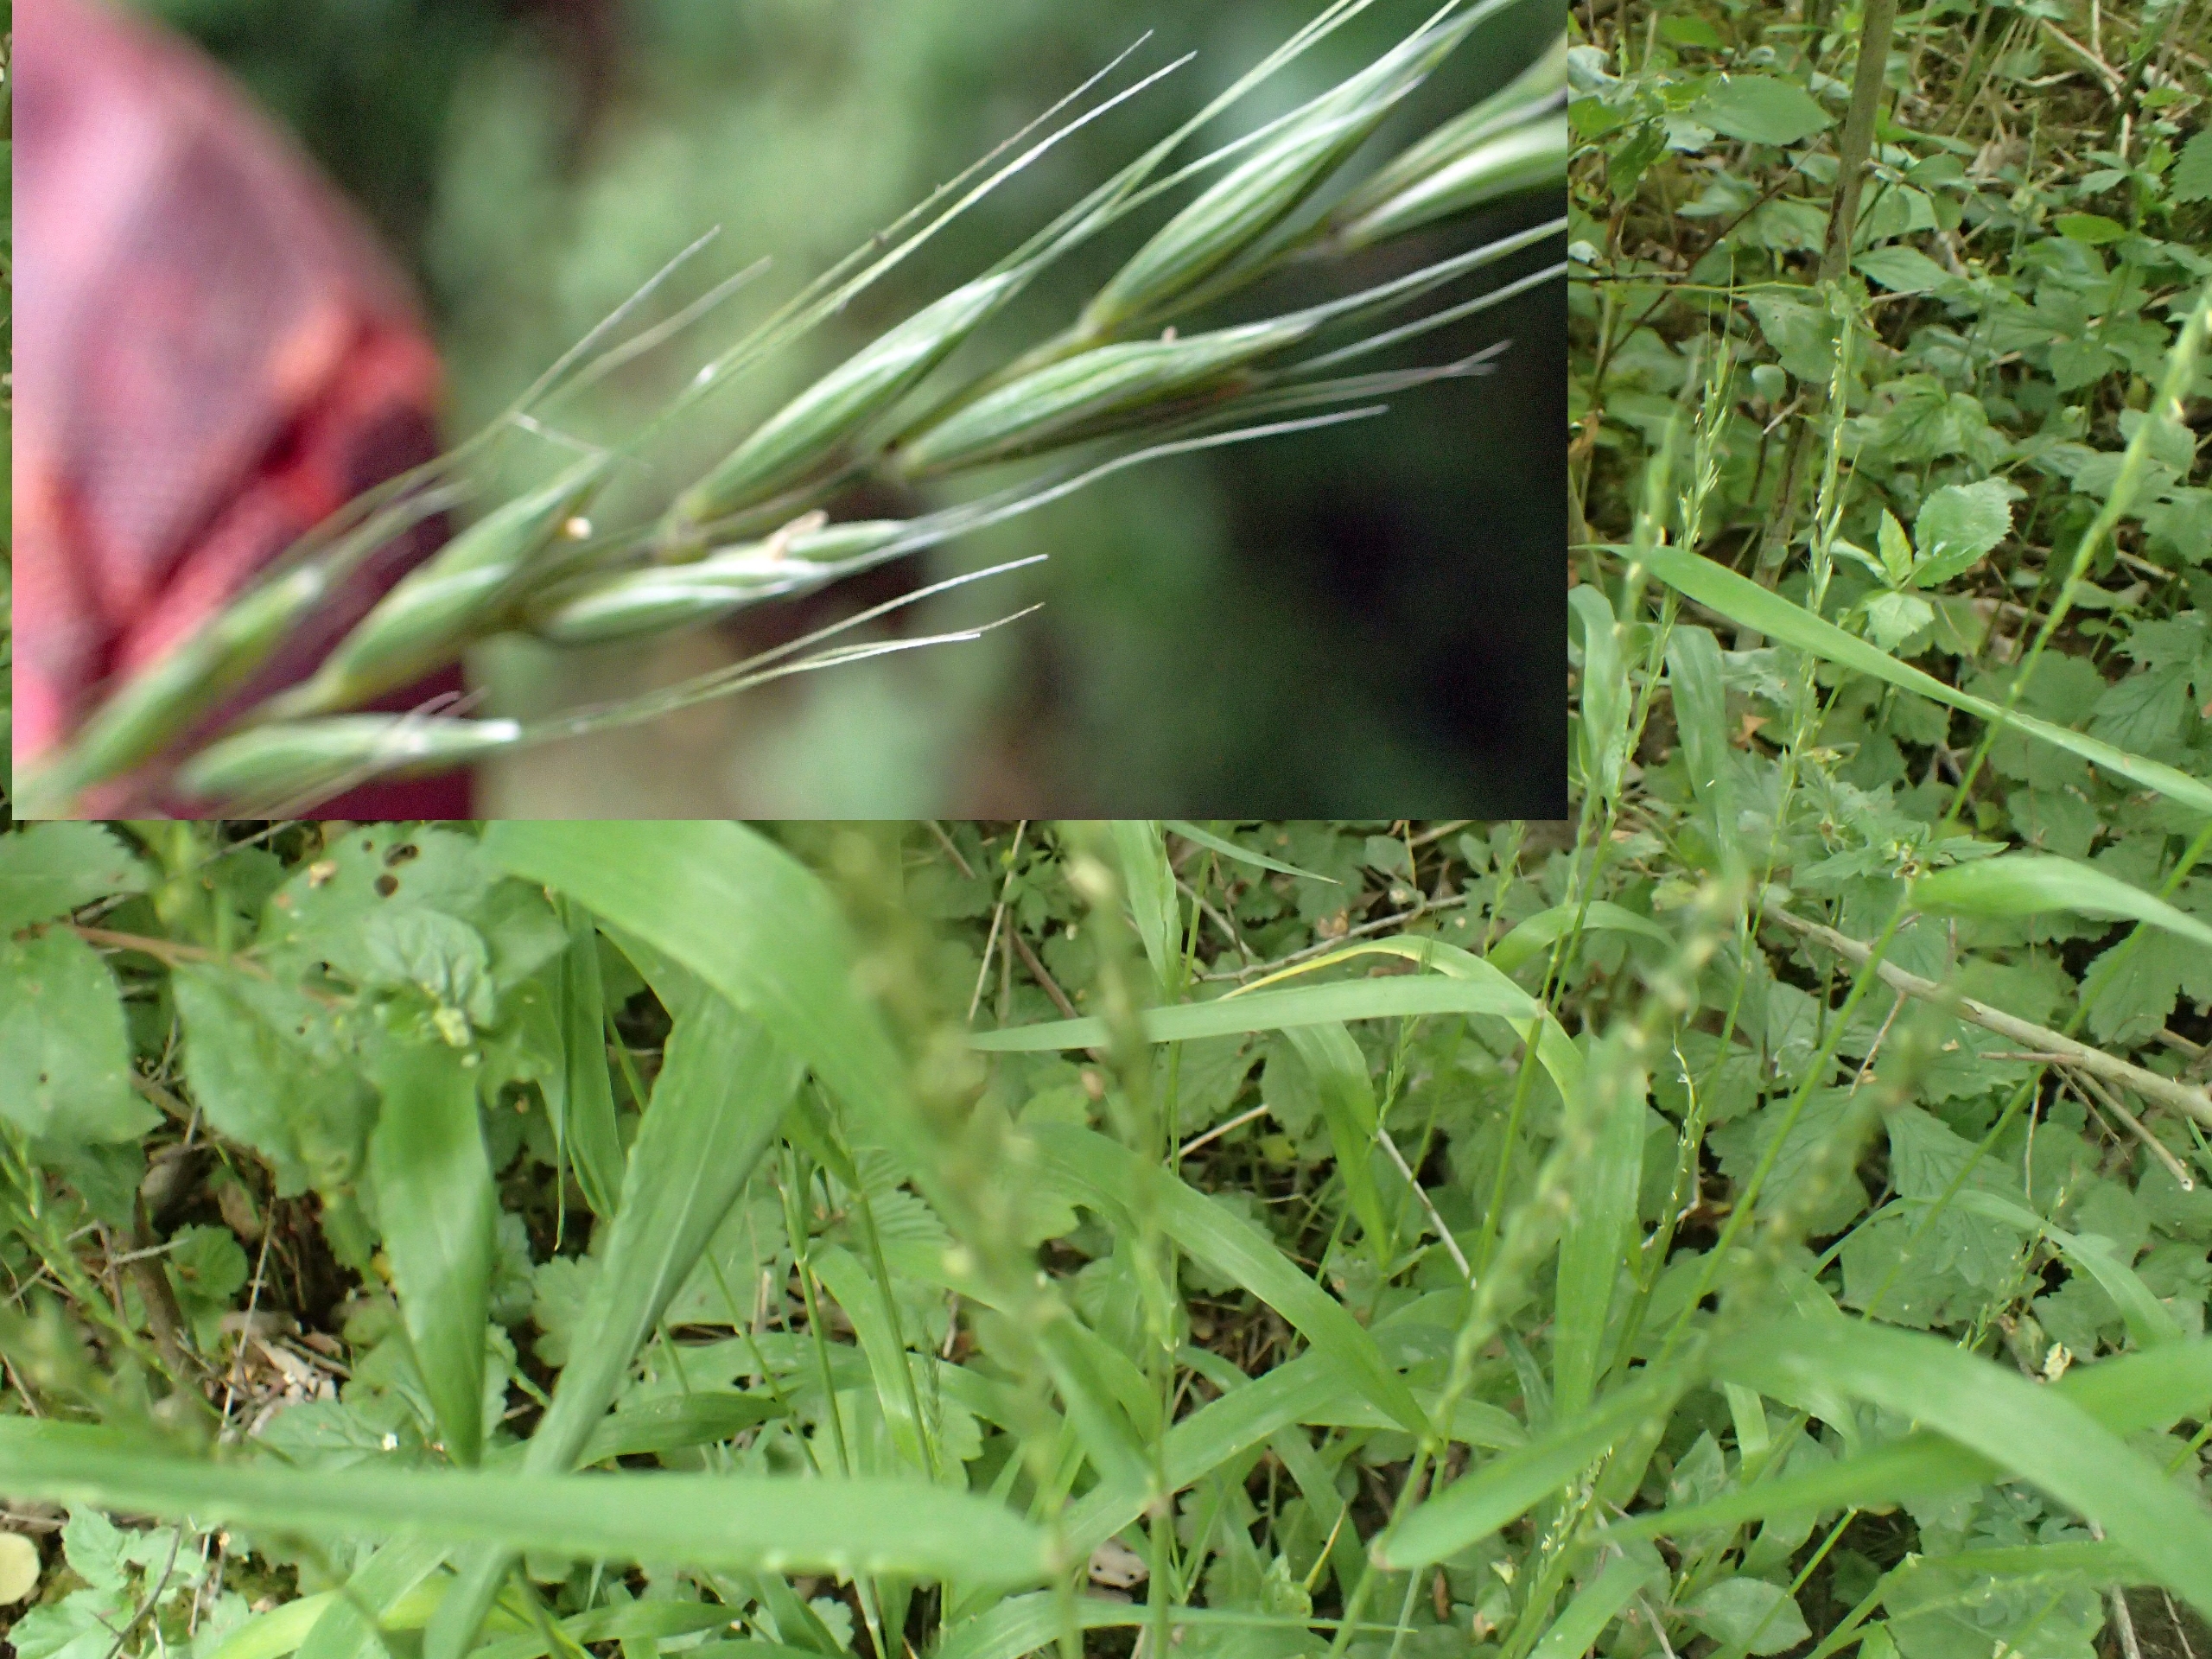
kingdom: Plantae
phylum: Tracheophyta
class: Liliopsida
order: Poales
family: Poaceae
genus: Elymus
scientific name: Elymus caninus
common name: Hundekvik
